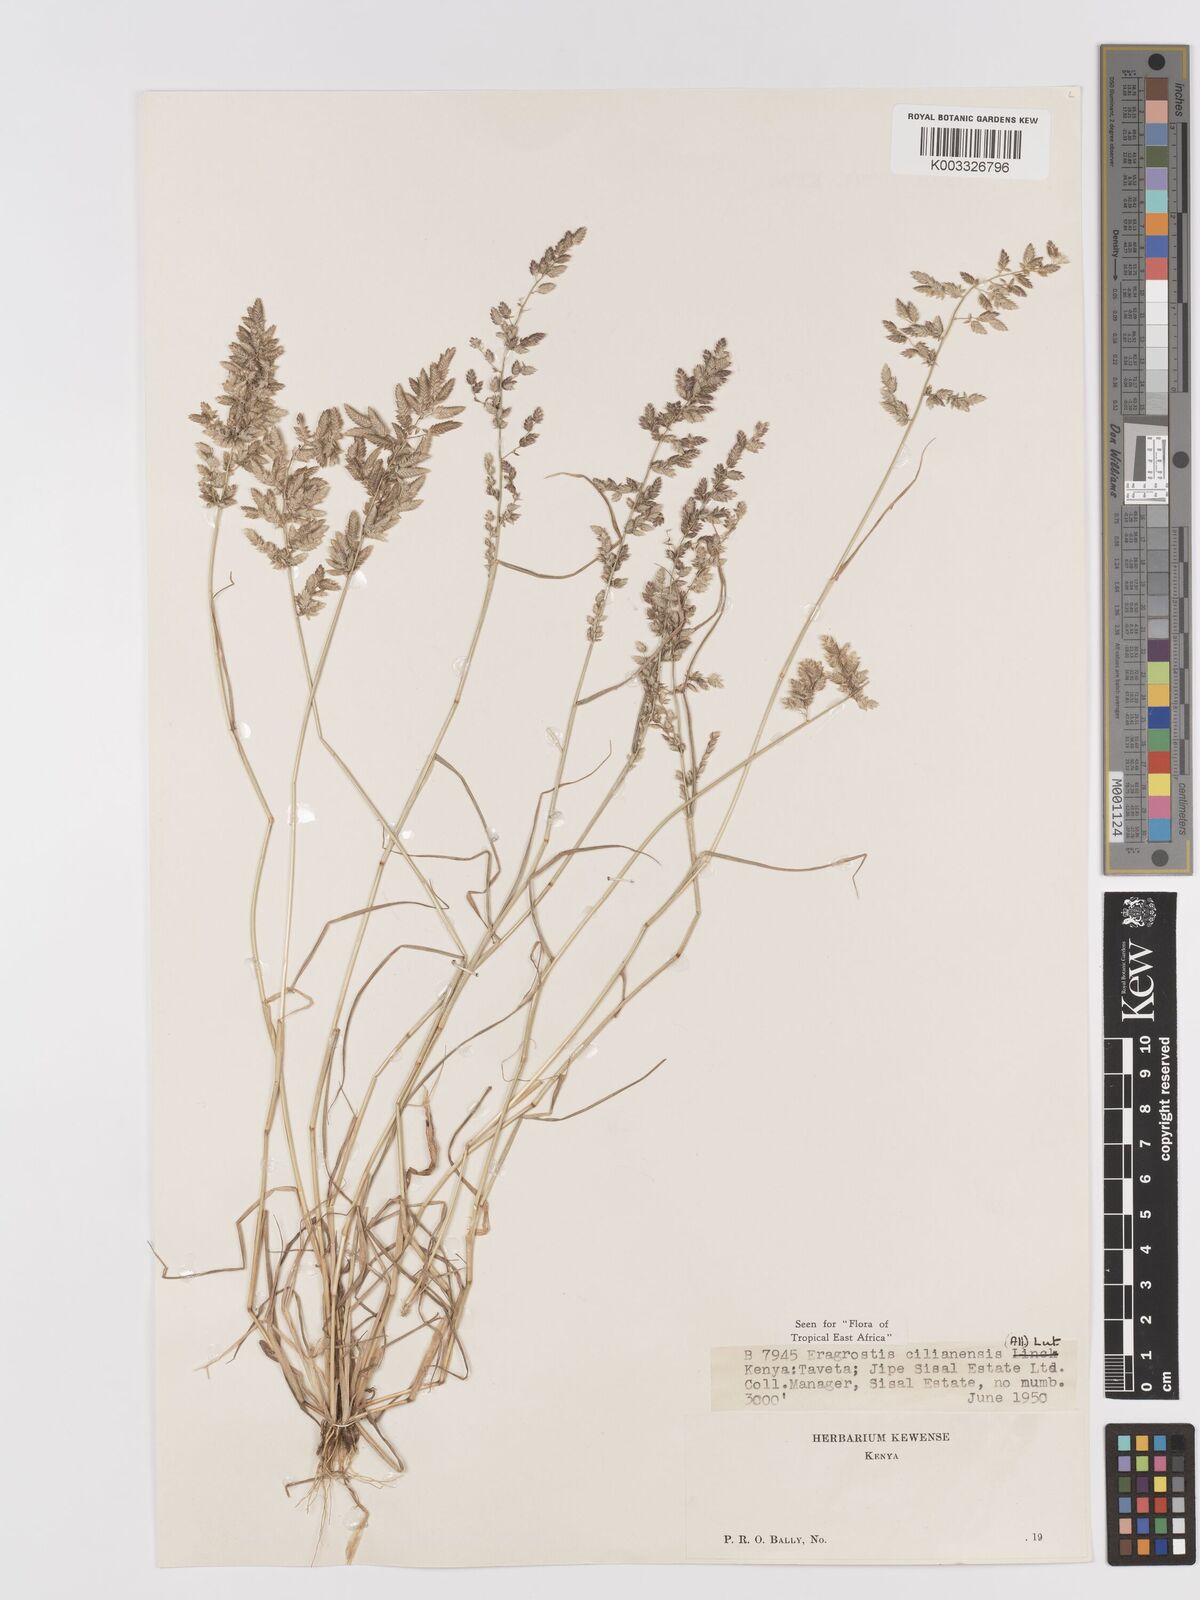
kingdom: Plantae
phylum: Tracheophyta
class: Liliopsida
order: Poales
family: Poaceae
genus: Eragrostis
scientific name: Eragrostis cilianensis
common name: Stinkgrass
